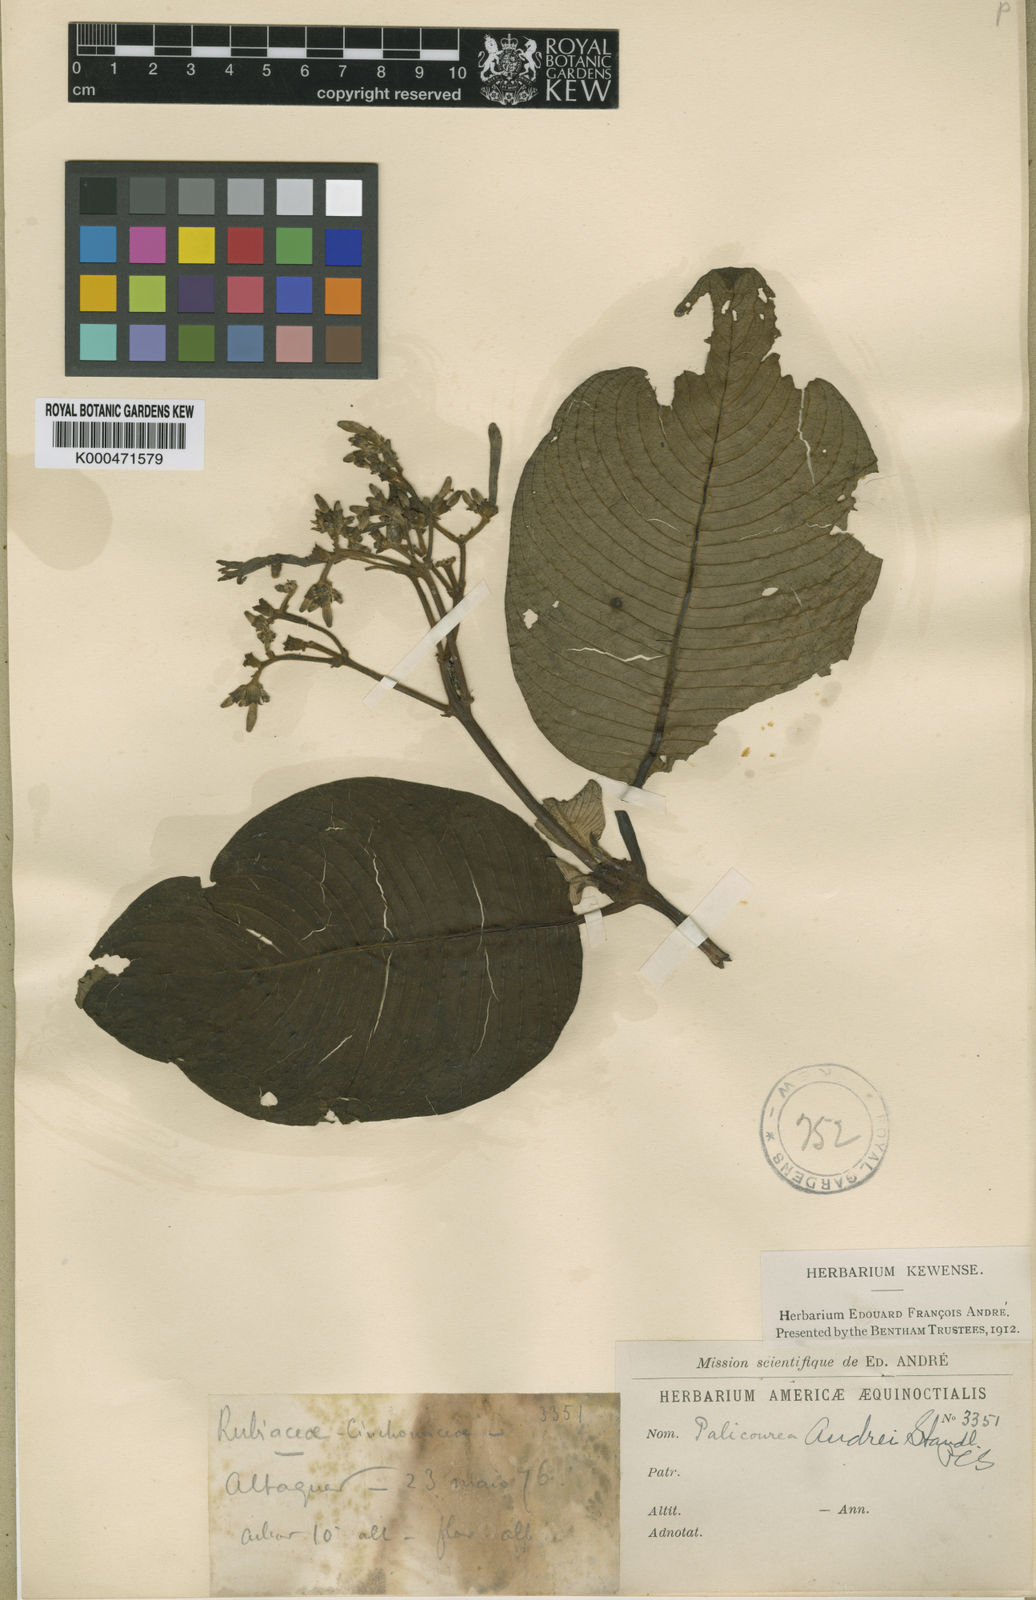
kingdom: Plantae
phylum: Tracheophyta
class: Magnoliopsida
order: Gentianales
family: Rubiaceae
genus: Palicourea
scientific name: Palicourea andrei
